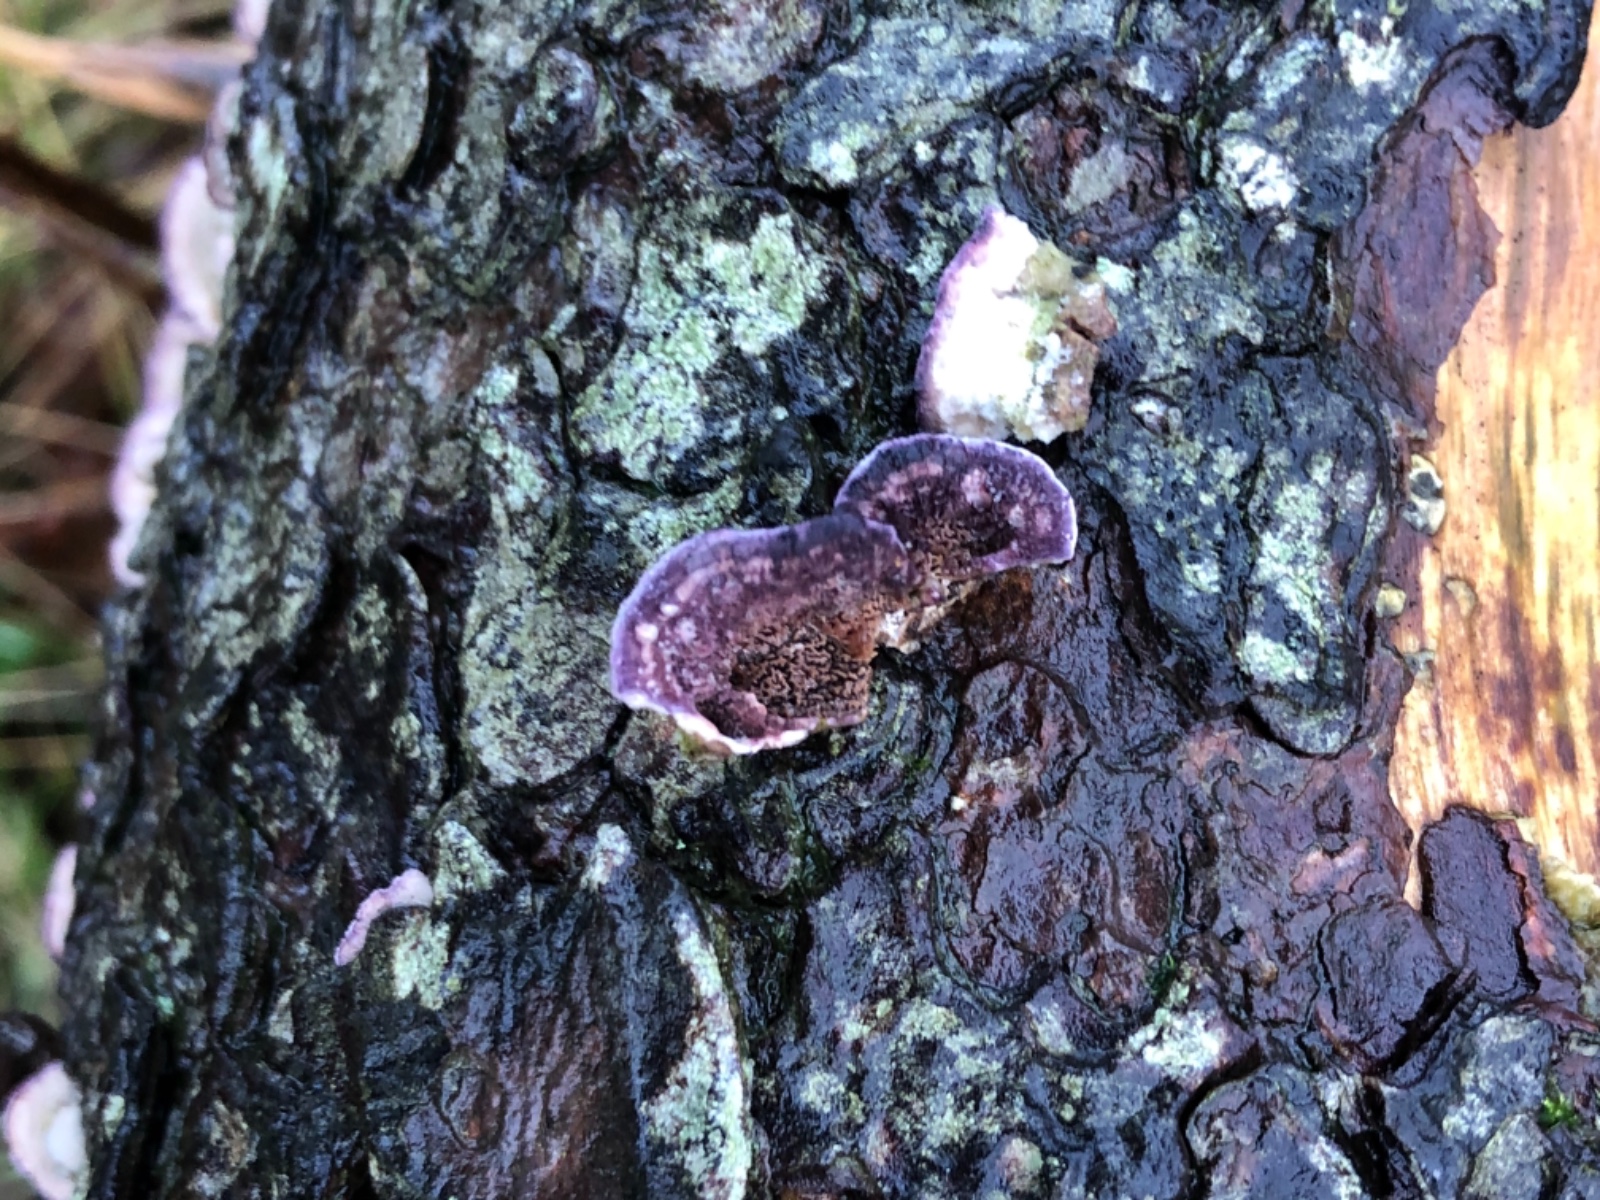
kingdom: Fungi
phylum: Basidiomycota
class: Agaricomycetes
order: Hymenochaetales
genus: Trichaptum
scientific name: Trichaptum abietinum
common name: almindelig violporesvamp
